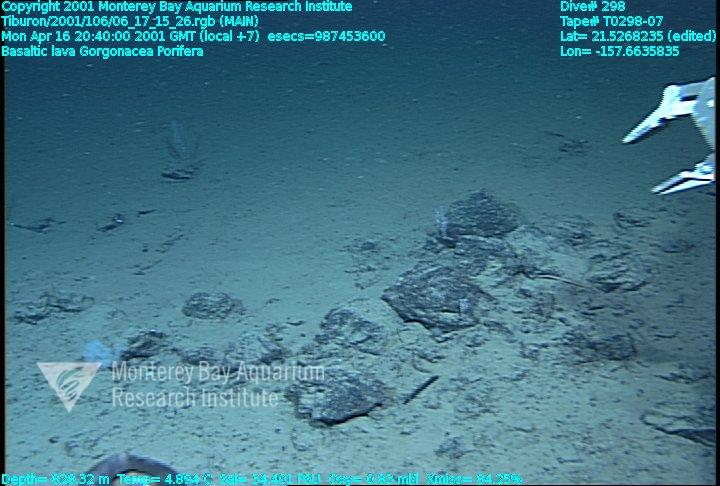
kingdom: Animalia
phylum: Porifera
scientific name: Porifera
